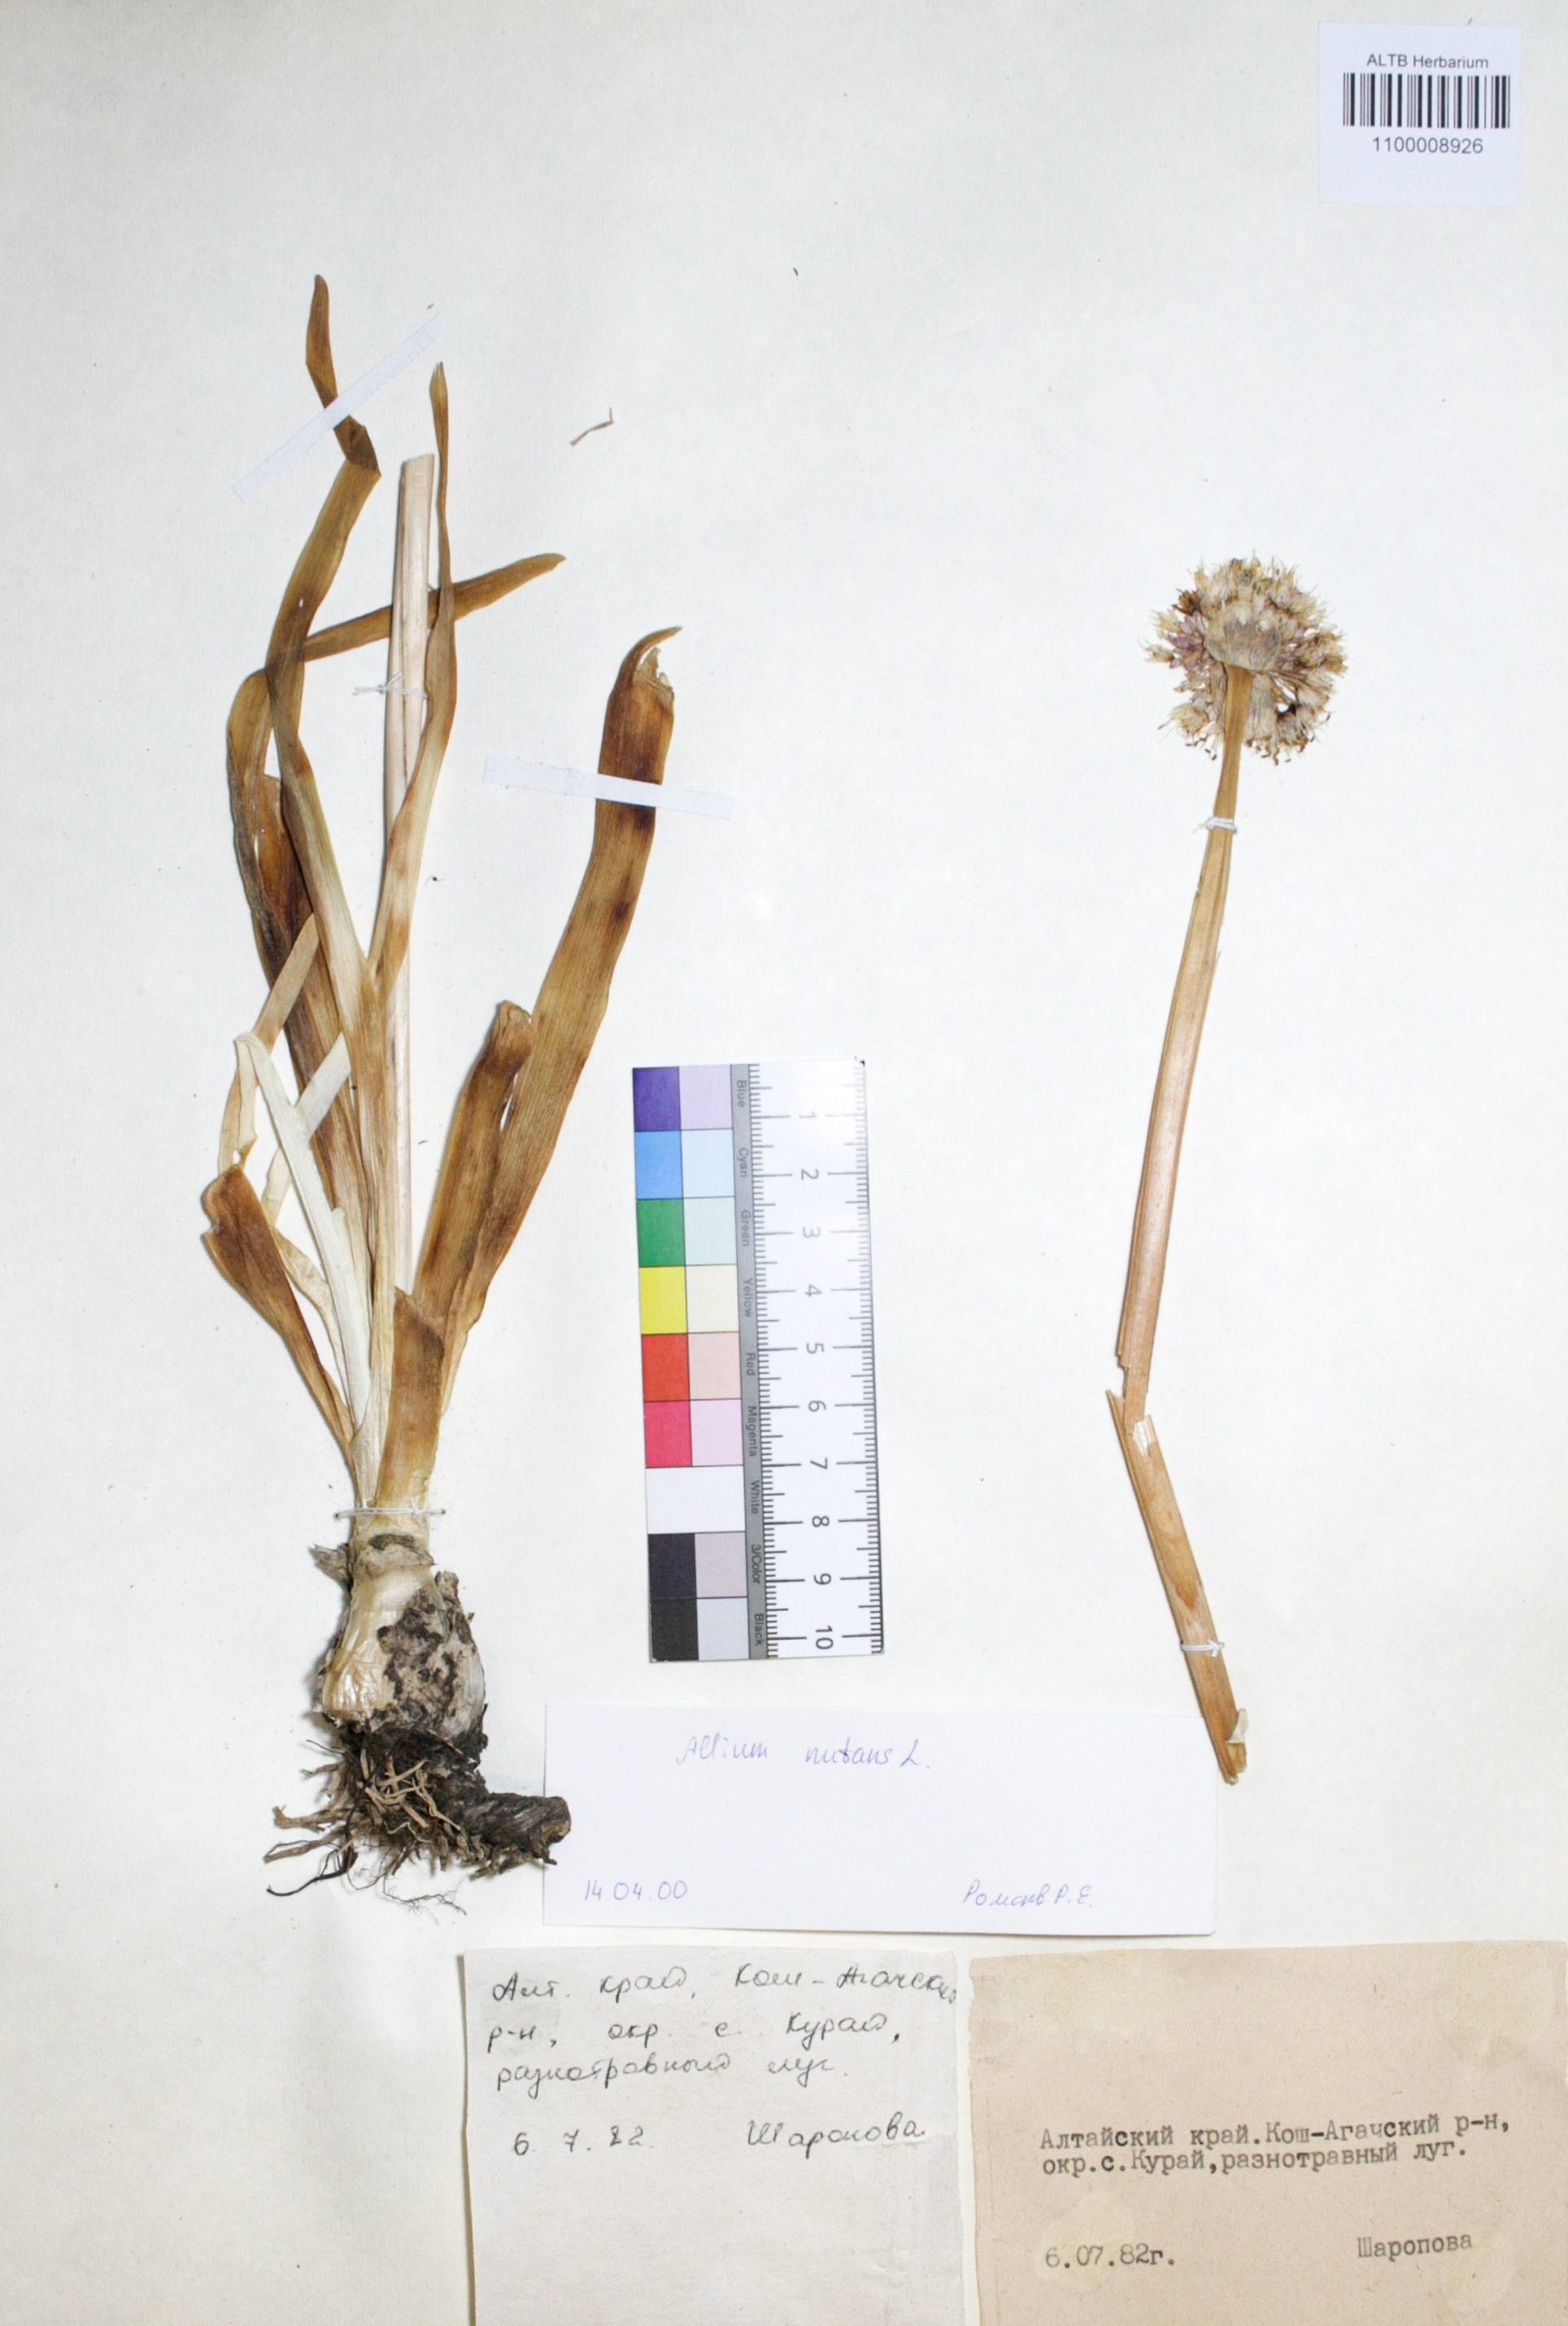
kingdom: Plantae
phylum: Tracheophyta
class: Liliopsida
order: Asparagales
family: Amaryllidaceae
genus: Allium
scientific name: Allium nutans
